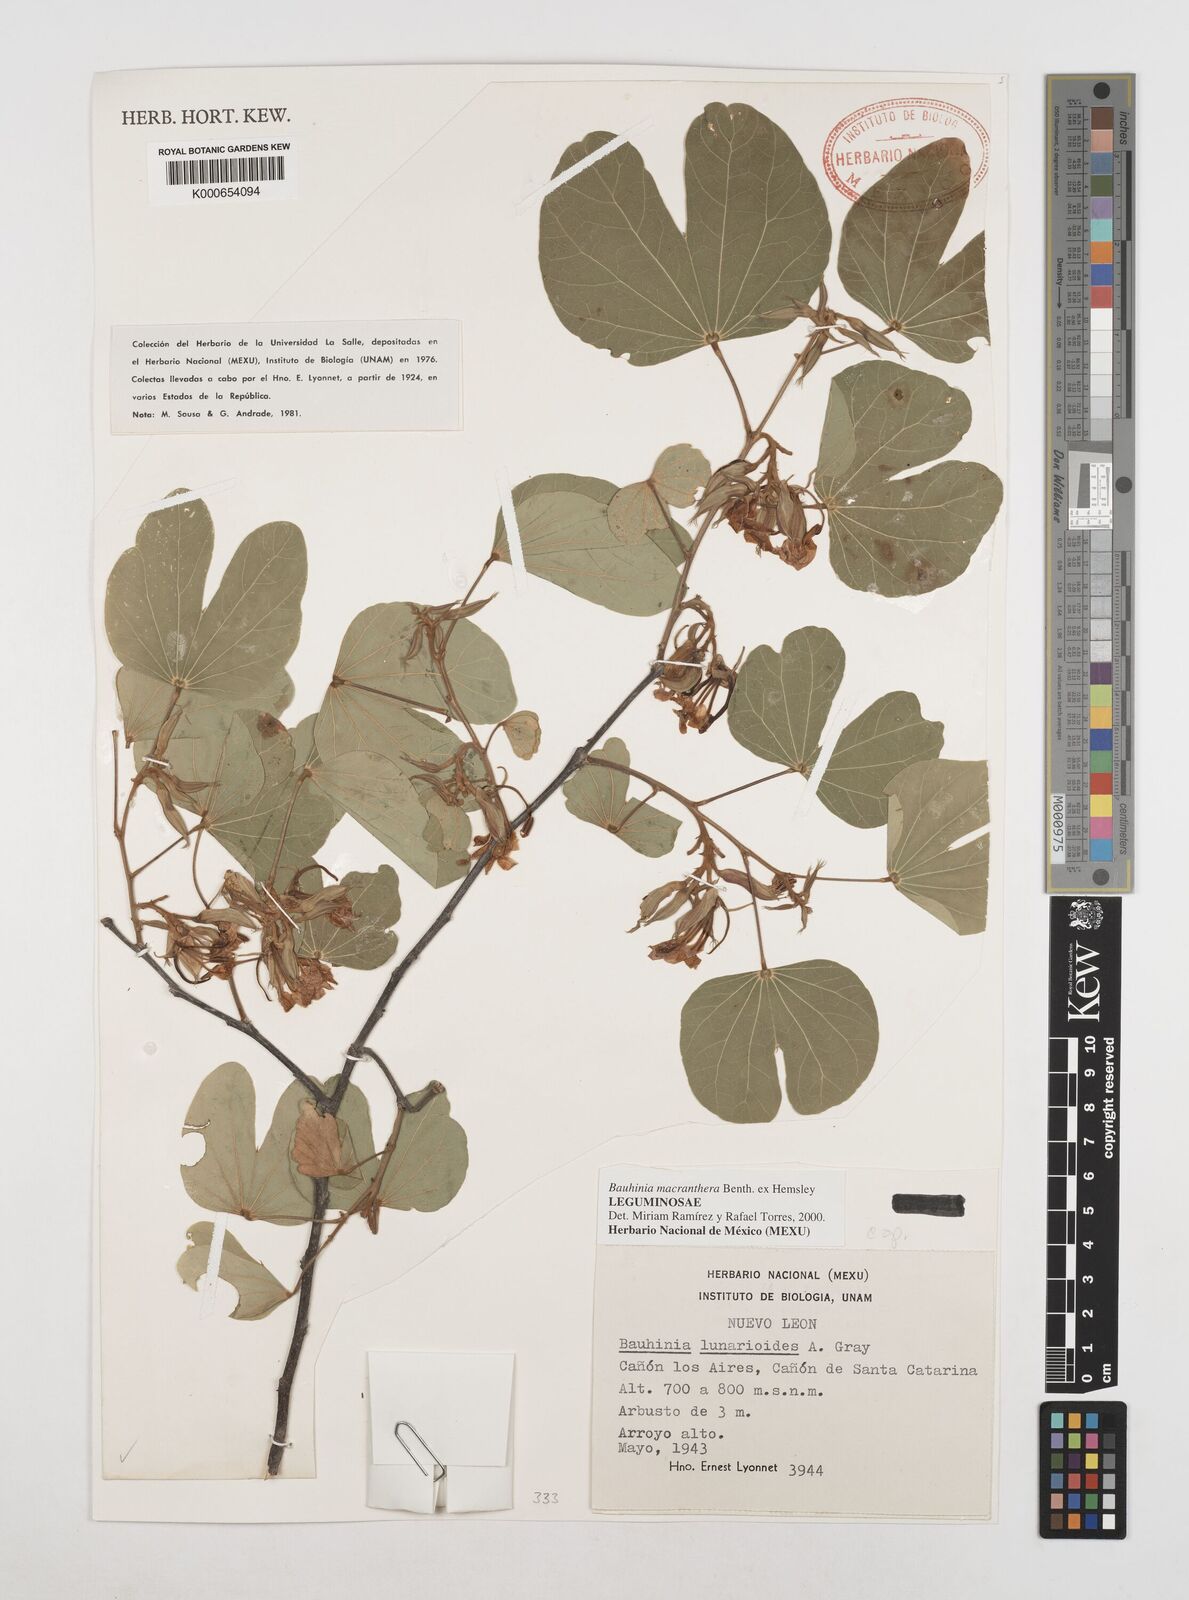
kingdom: Plantae
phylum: Tracheophyta
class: Magnoliopsida
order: Fabales
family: Fabaceae
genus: Bauhinia
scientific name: Bauhinia macranthera
